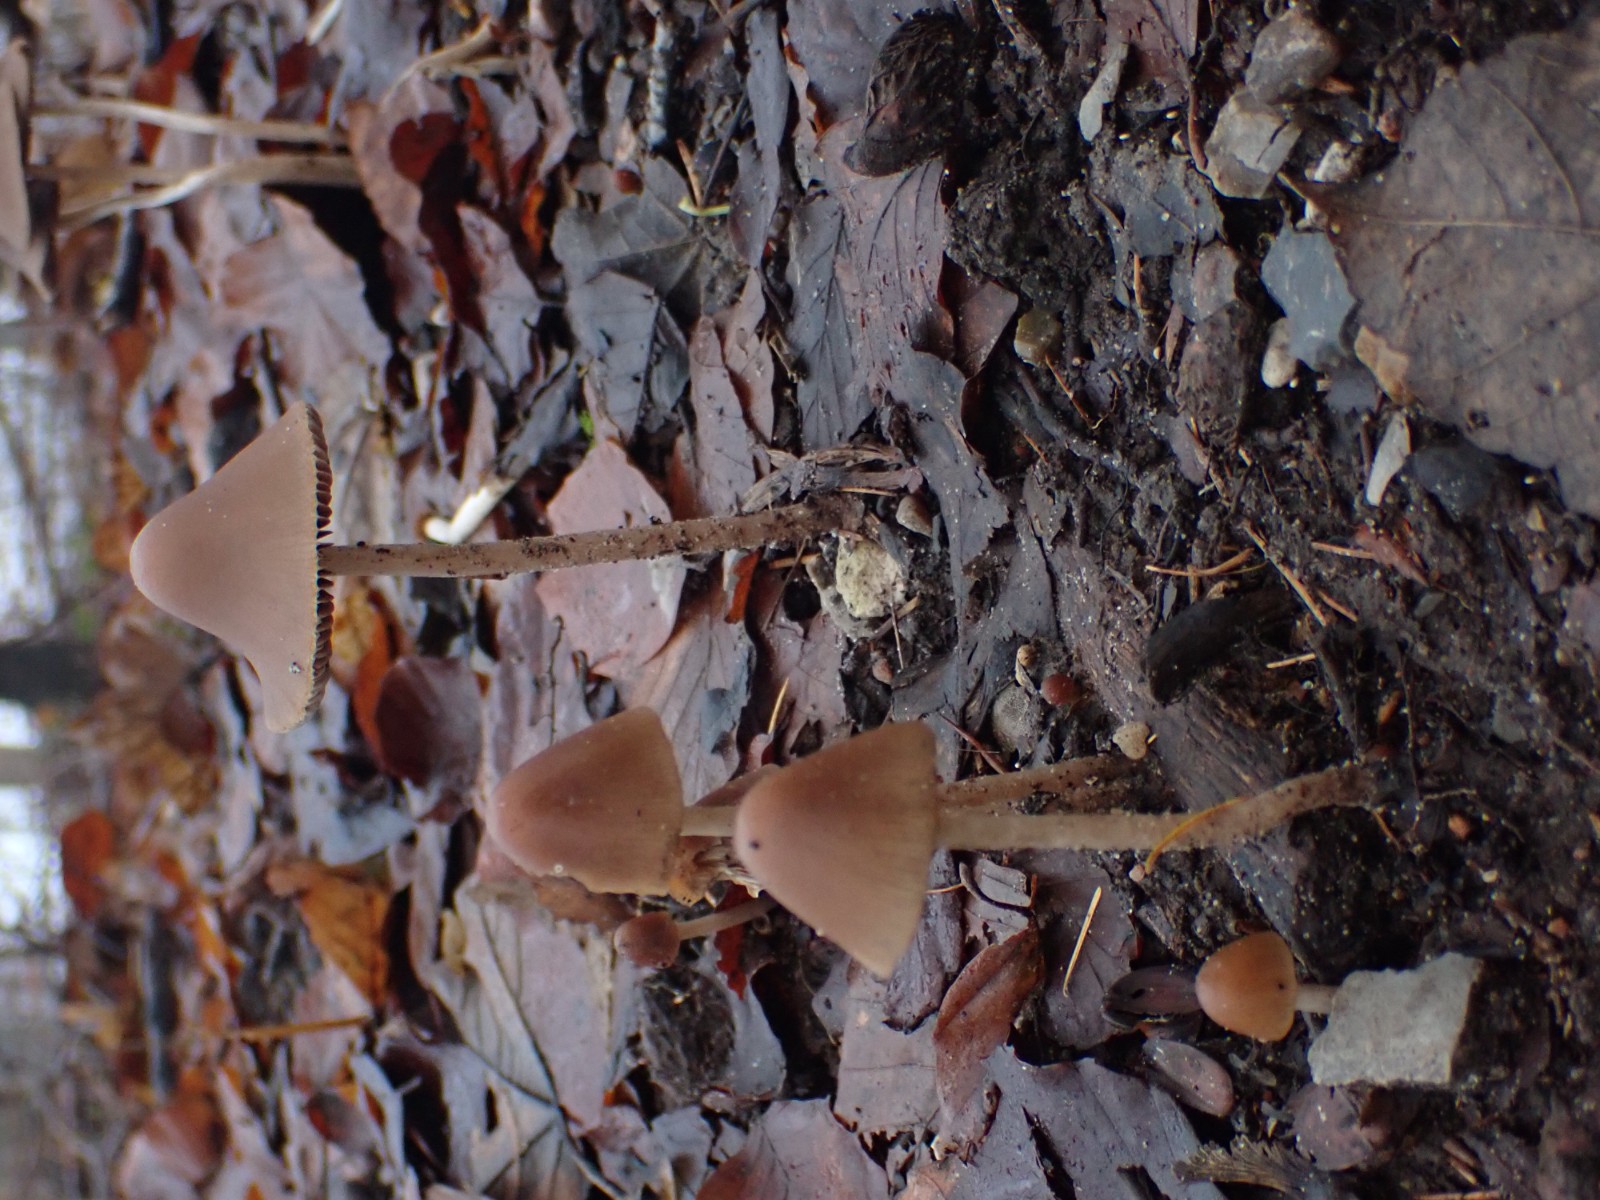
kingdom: Fungi
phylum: Basidiomycota
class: Agaricomycetes
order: Agaricales
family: Psathyrellaceae
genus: Parasola
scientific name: Parasola conopilea
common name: kegle-hjulhat
